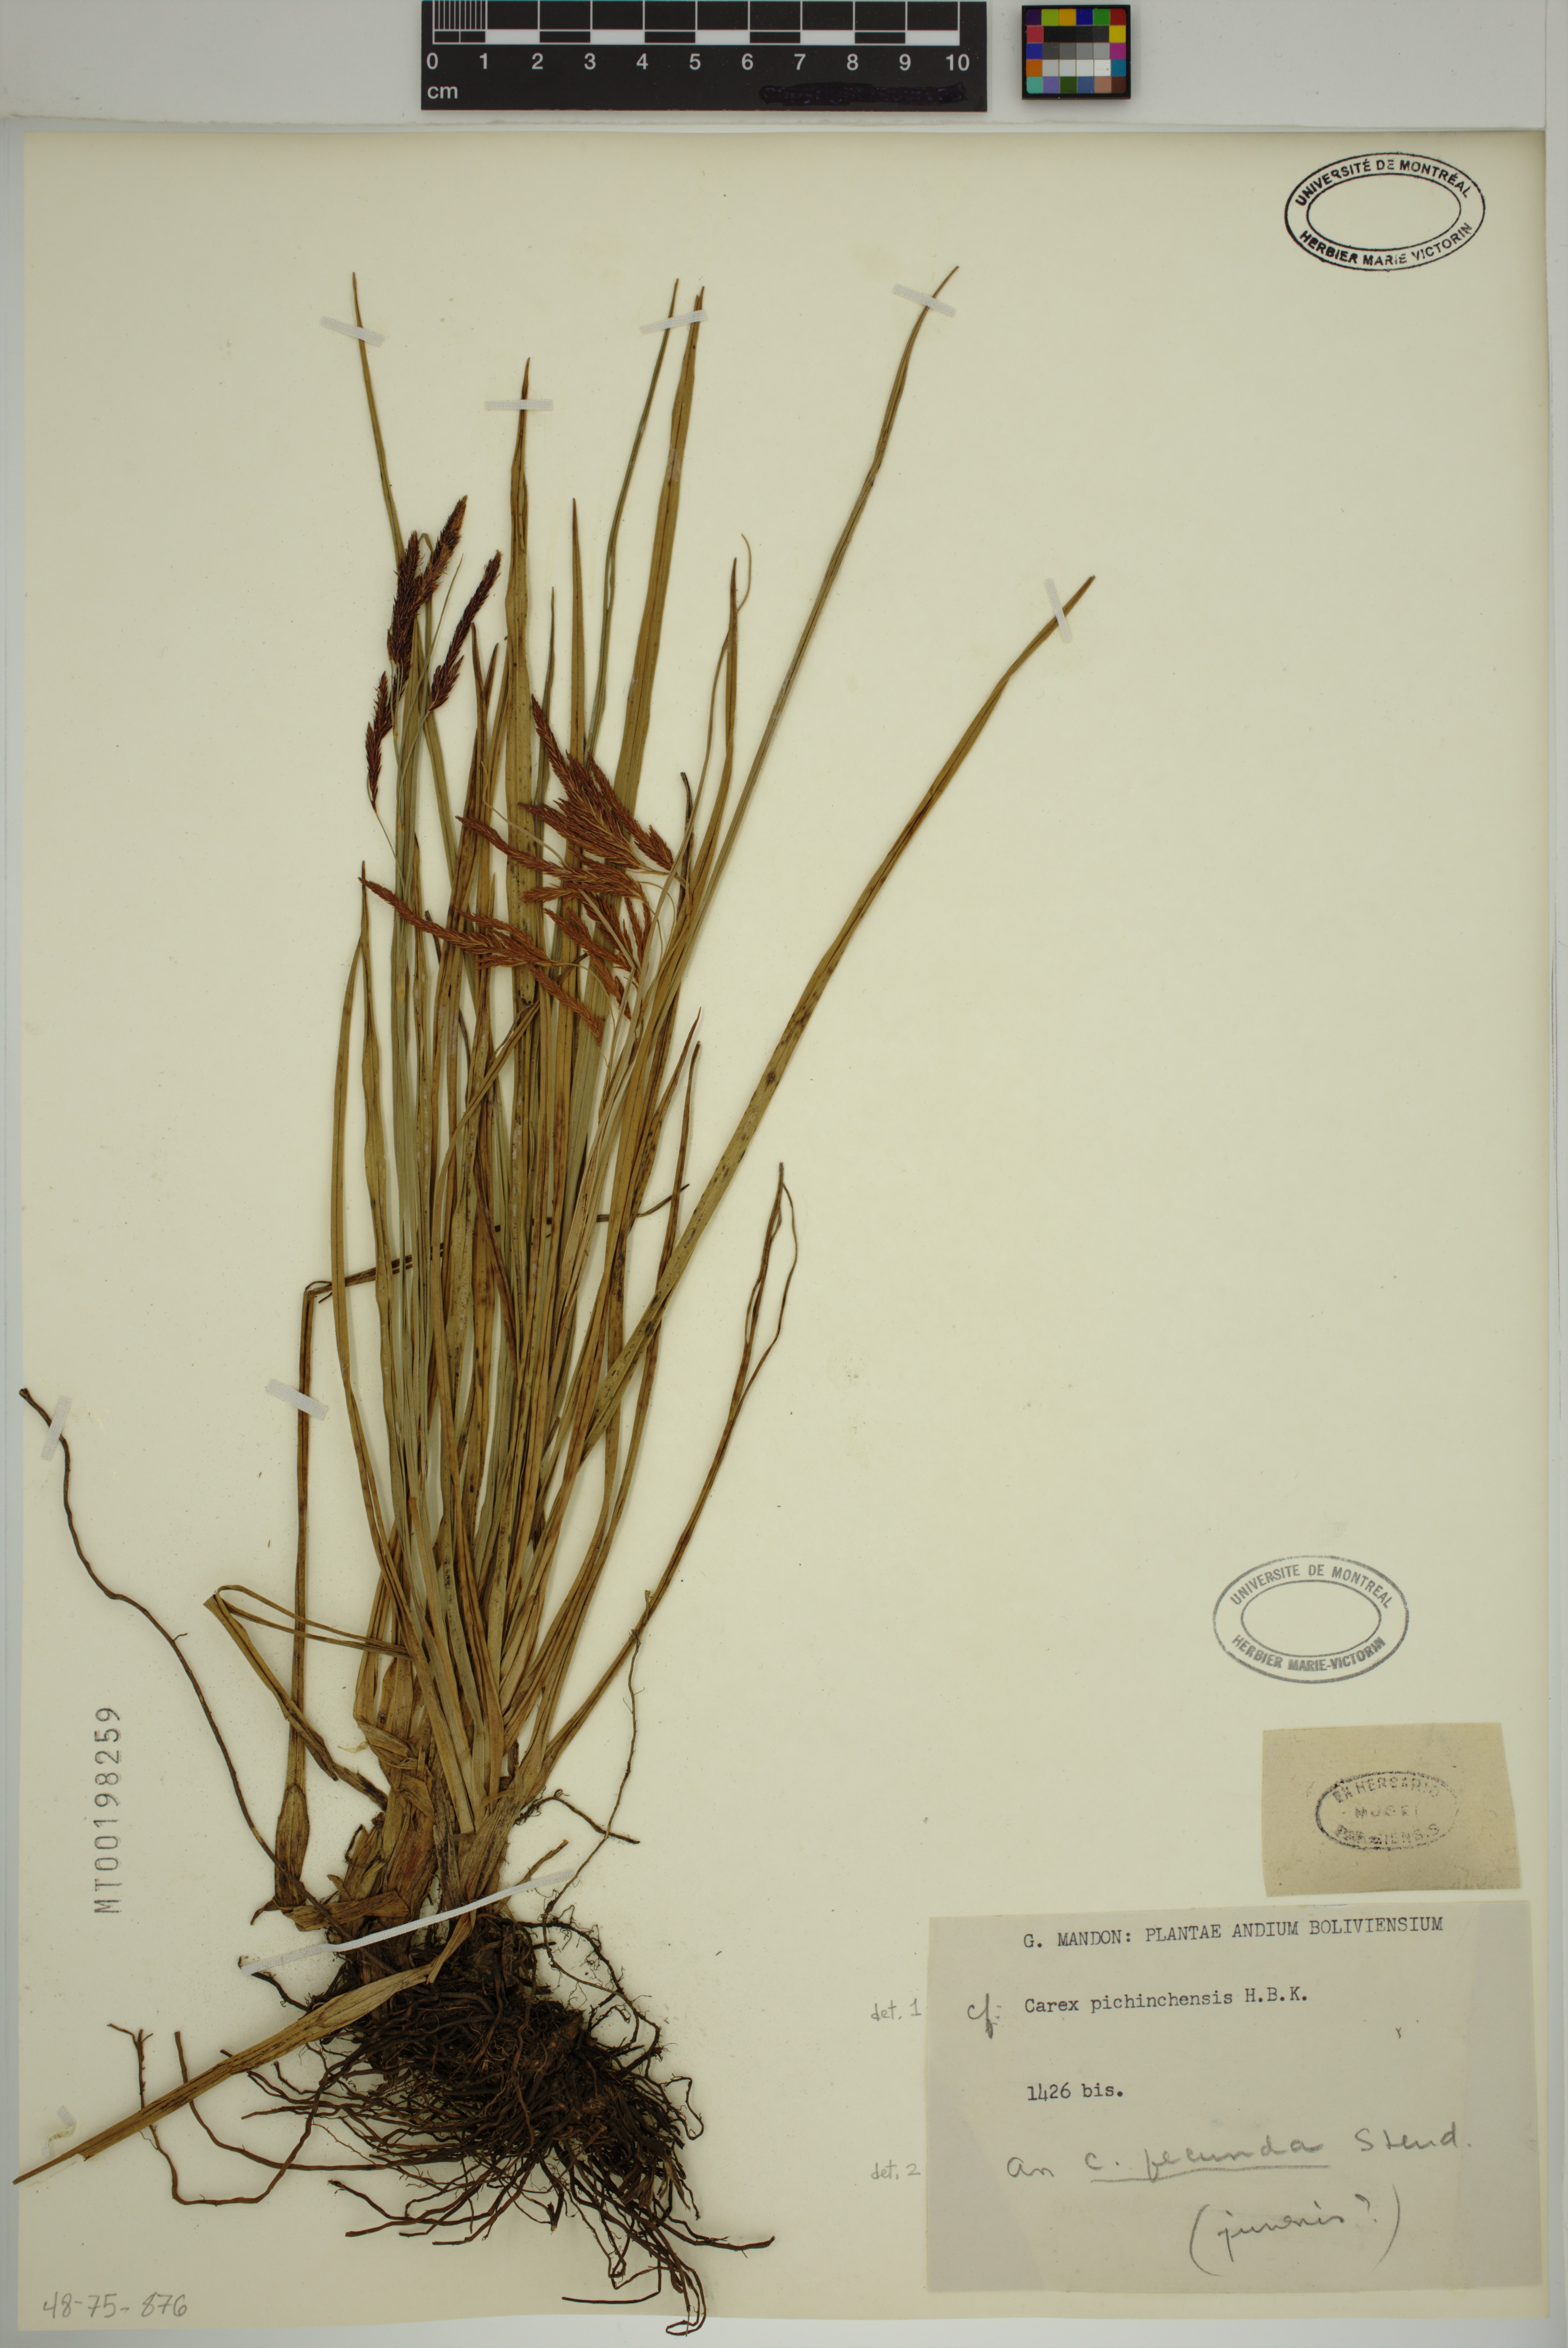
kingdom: Plantae
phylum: Tracheophyta
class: Liliopsida
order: Poales
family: Cyperaceae
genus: Carex
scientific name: Carex fecunda
